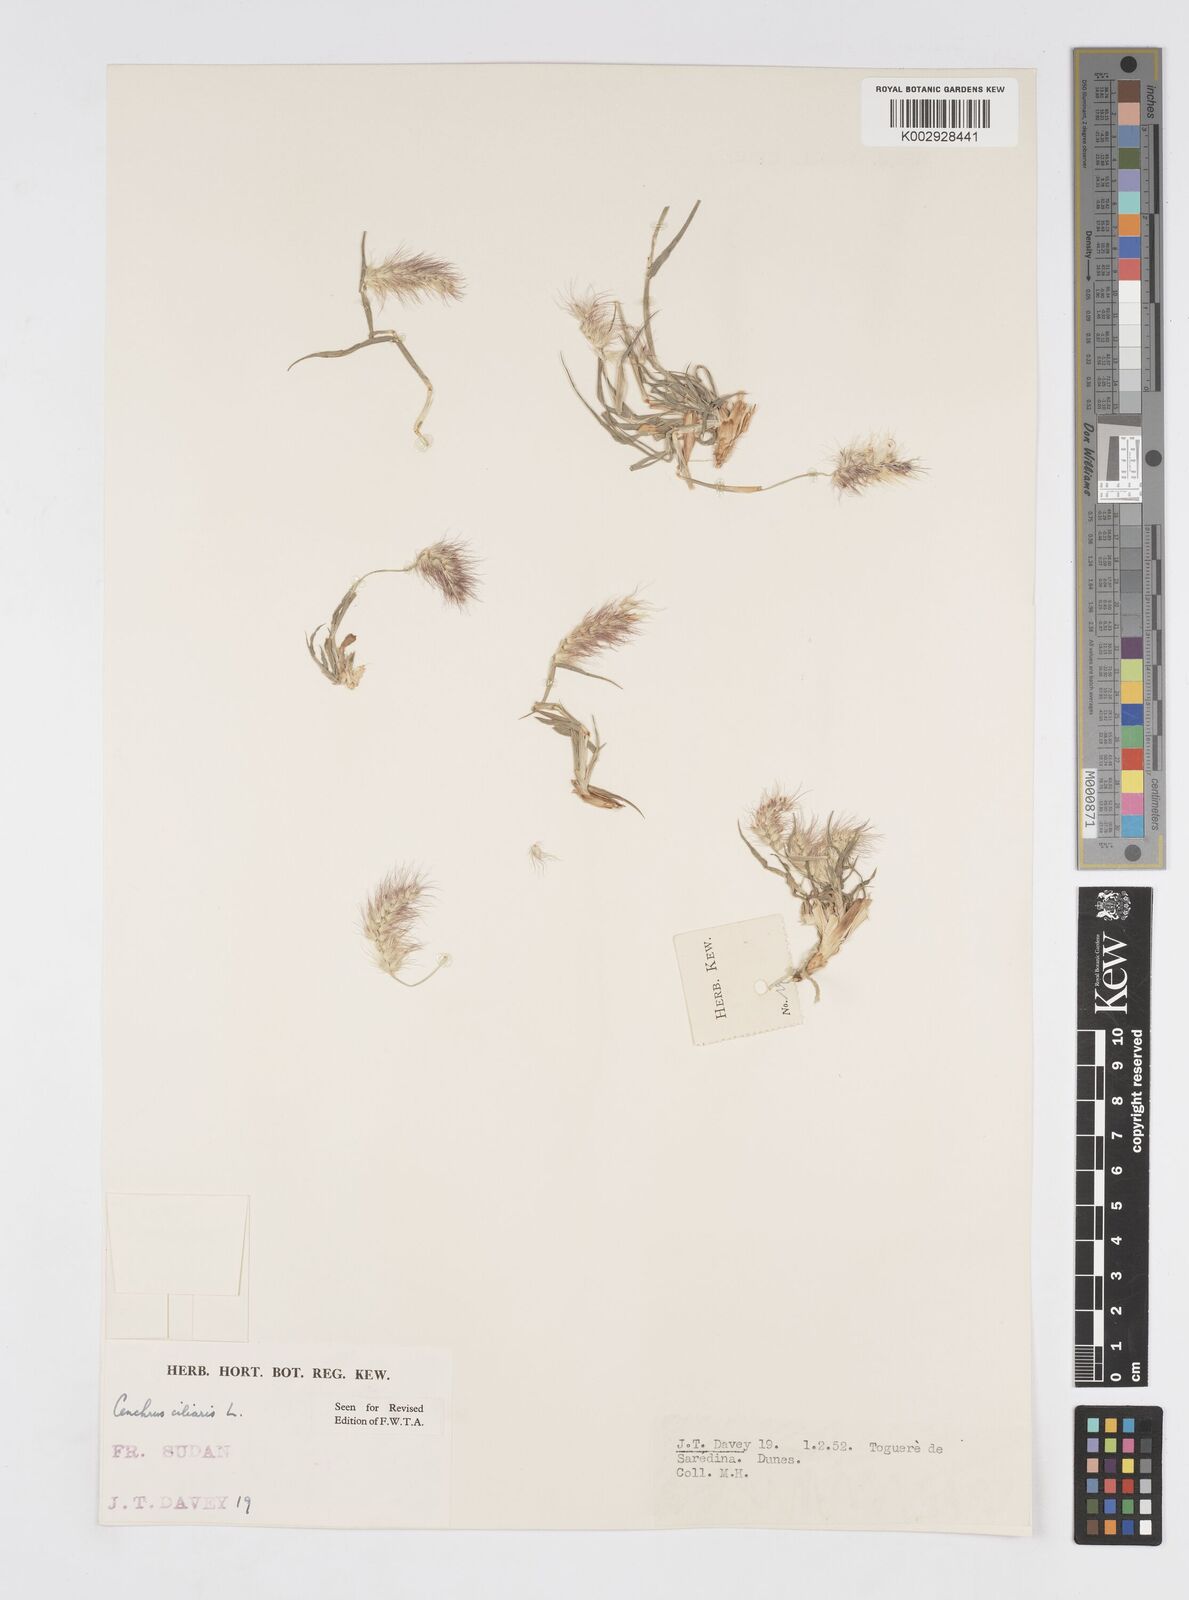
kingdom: Plantae
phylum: Tracheophyta
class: Liliopsida
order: Poales
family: Poaceae
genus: Cenchrus
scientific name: Cenchrus ciliaris
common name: Buffelgrass
